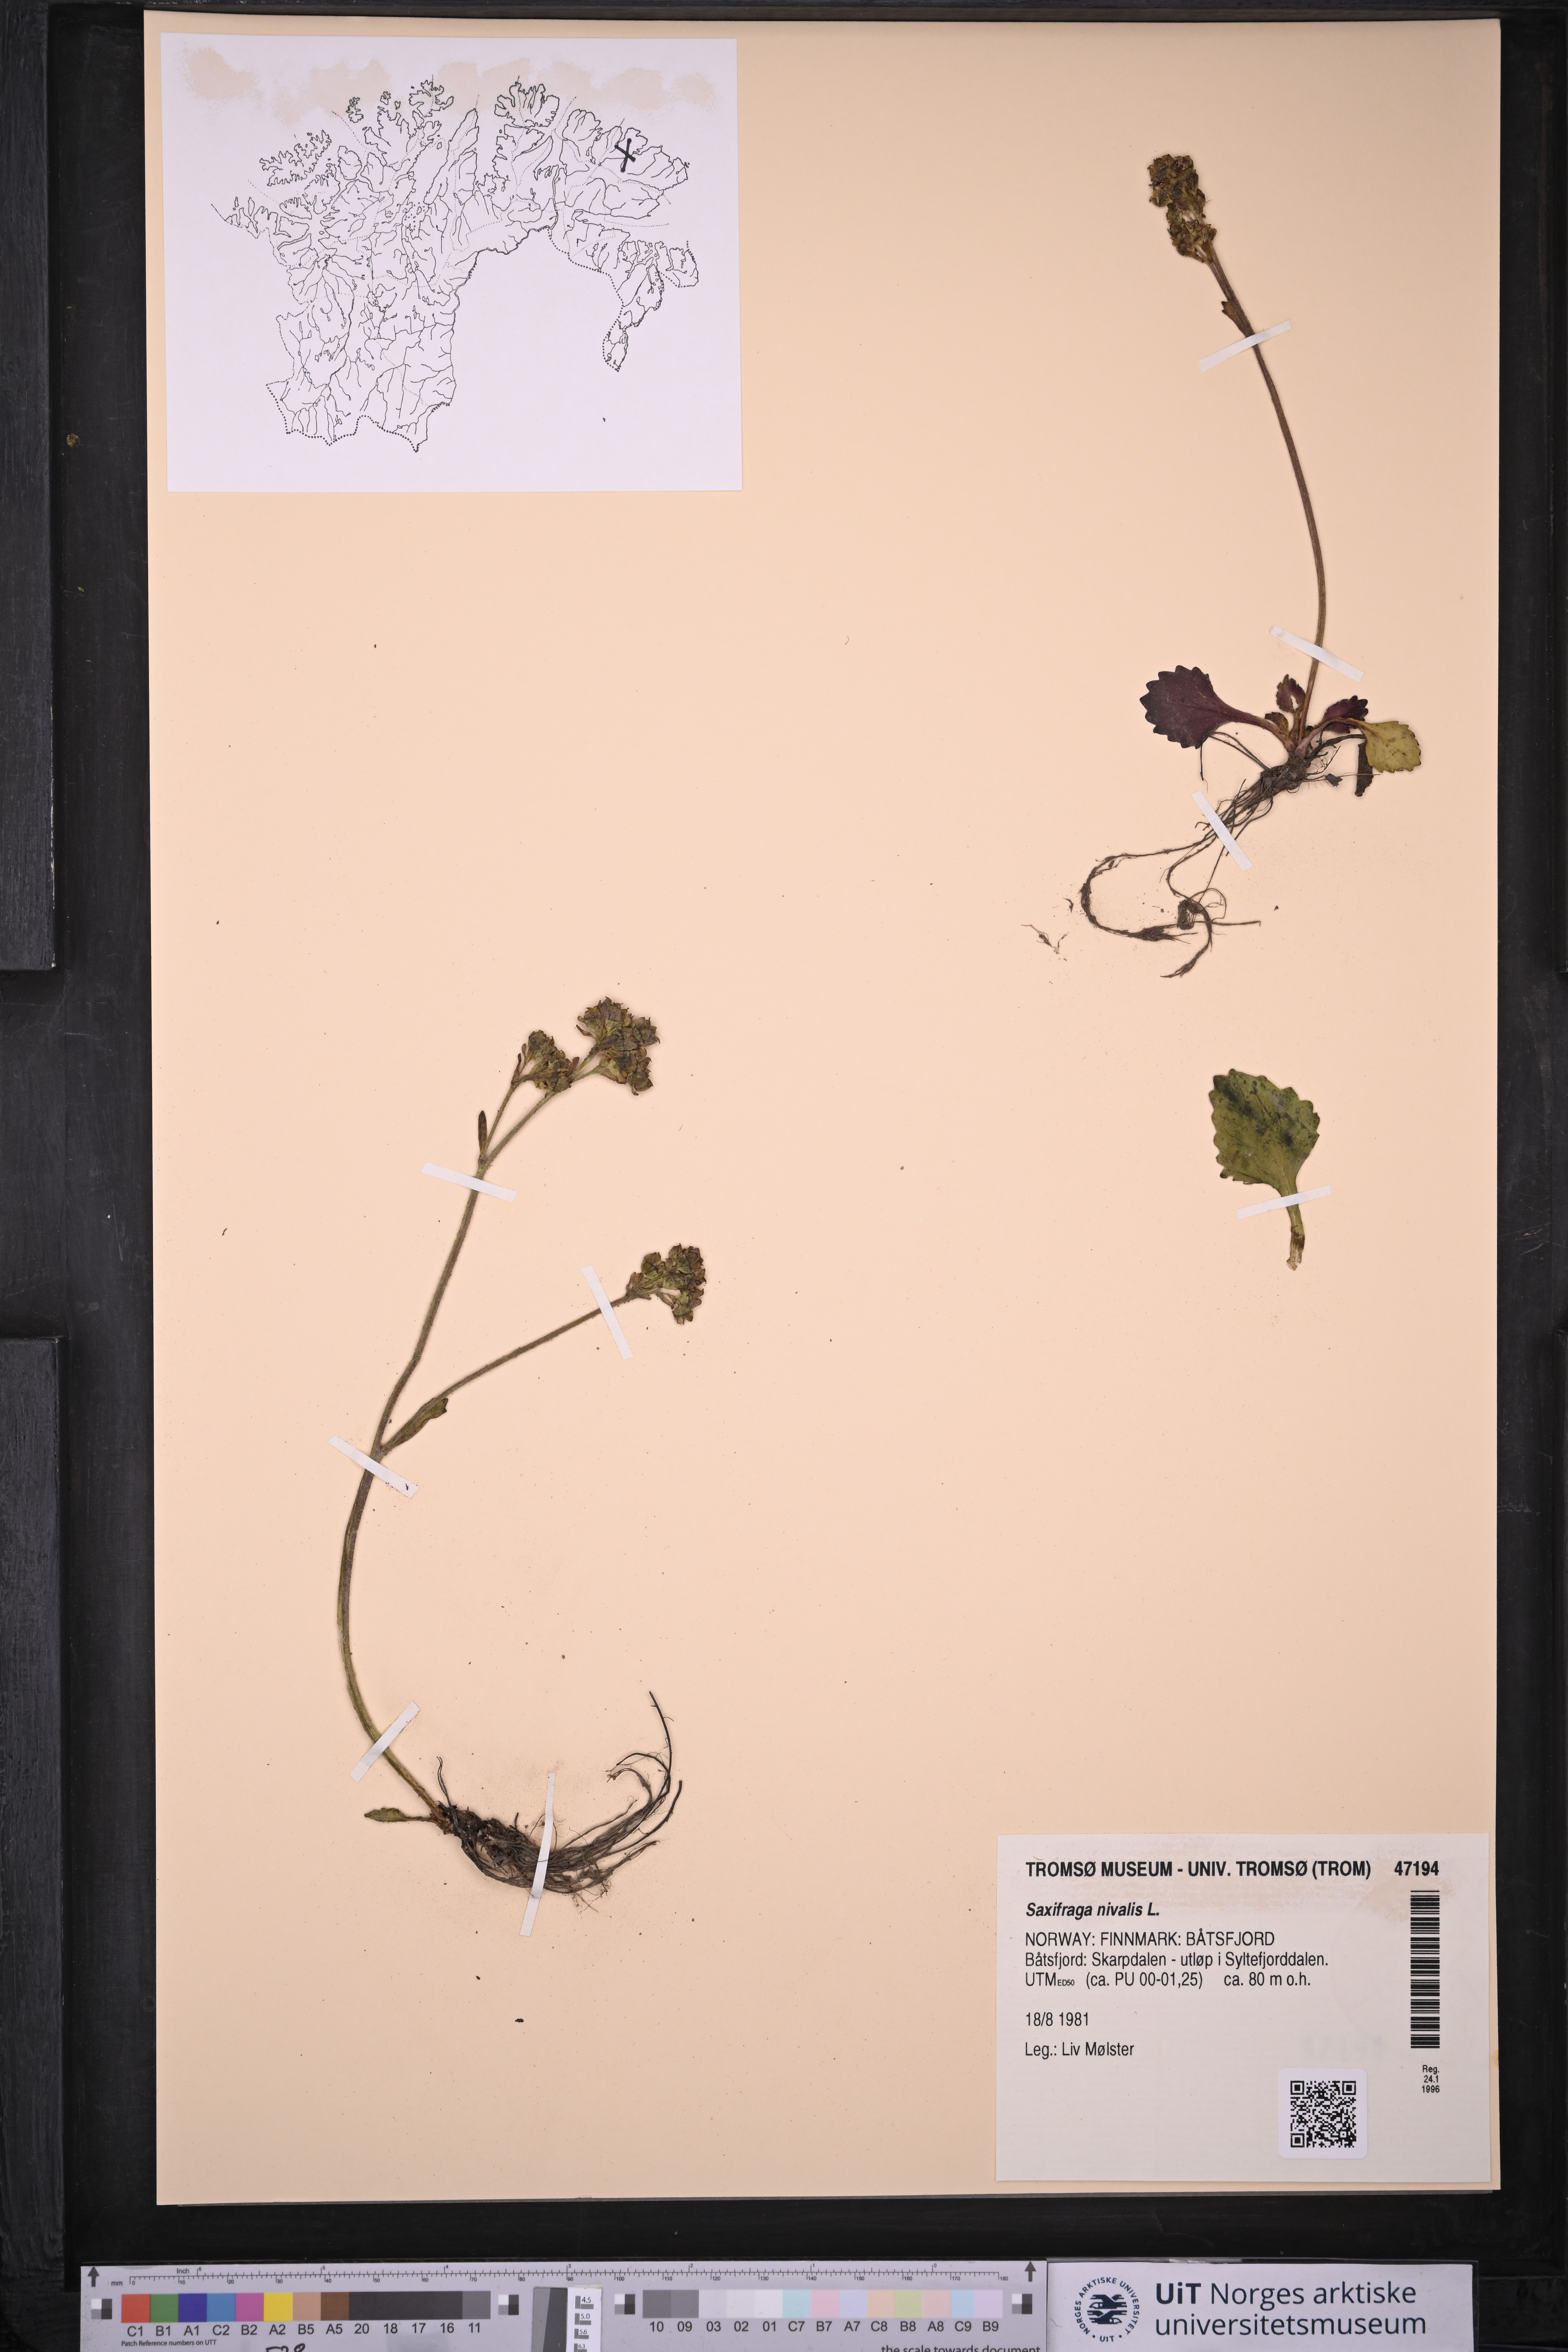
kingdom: Plantae
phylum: Tracheophyta
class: Magnoliopsida
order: Saxifragales
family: Saxifragaceae
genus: Micranthes
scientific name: Micranthes nivalis
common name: Alpine saxifrage
